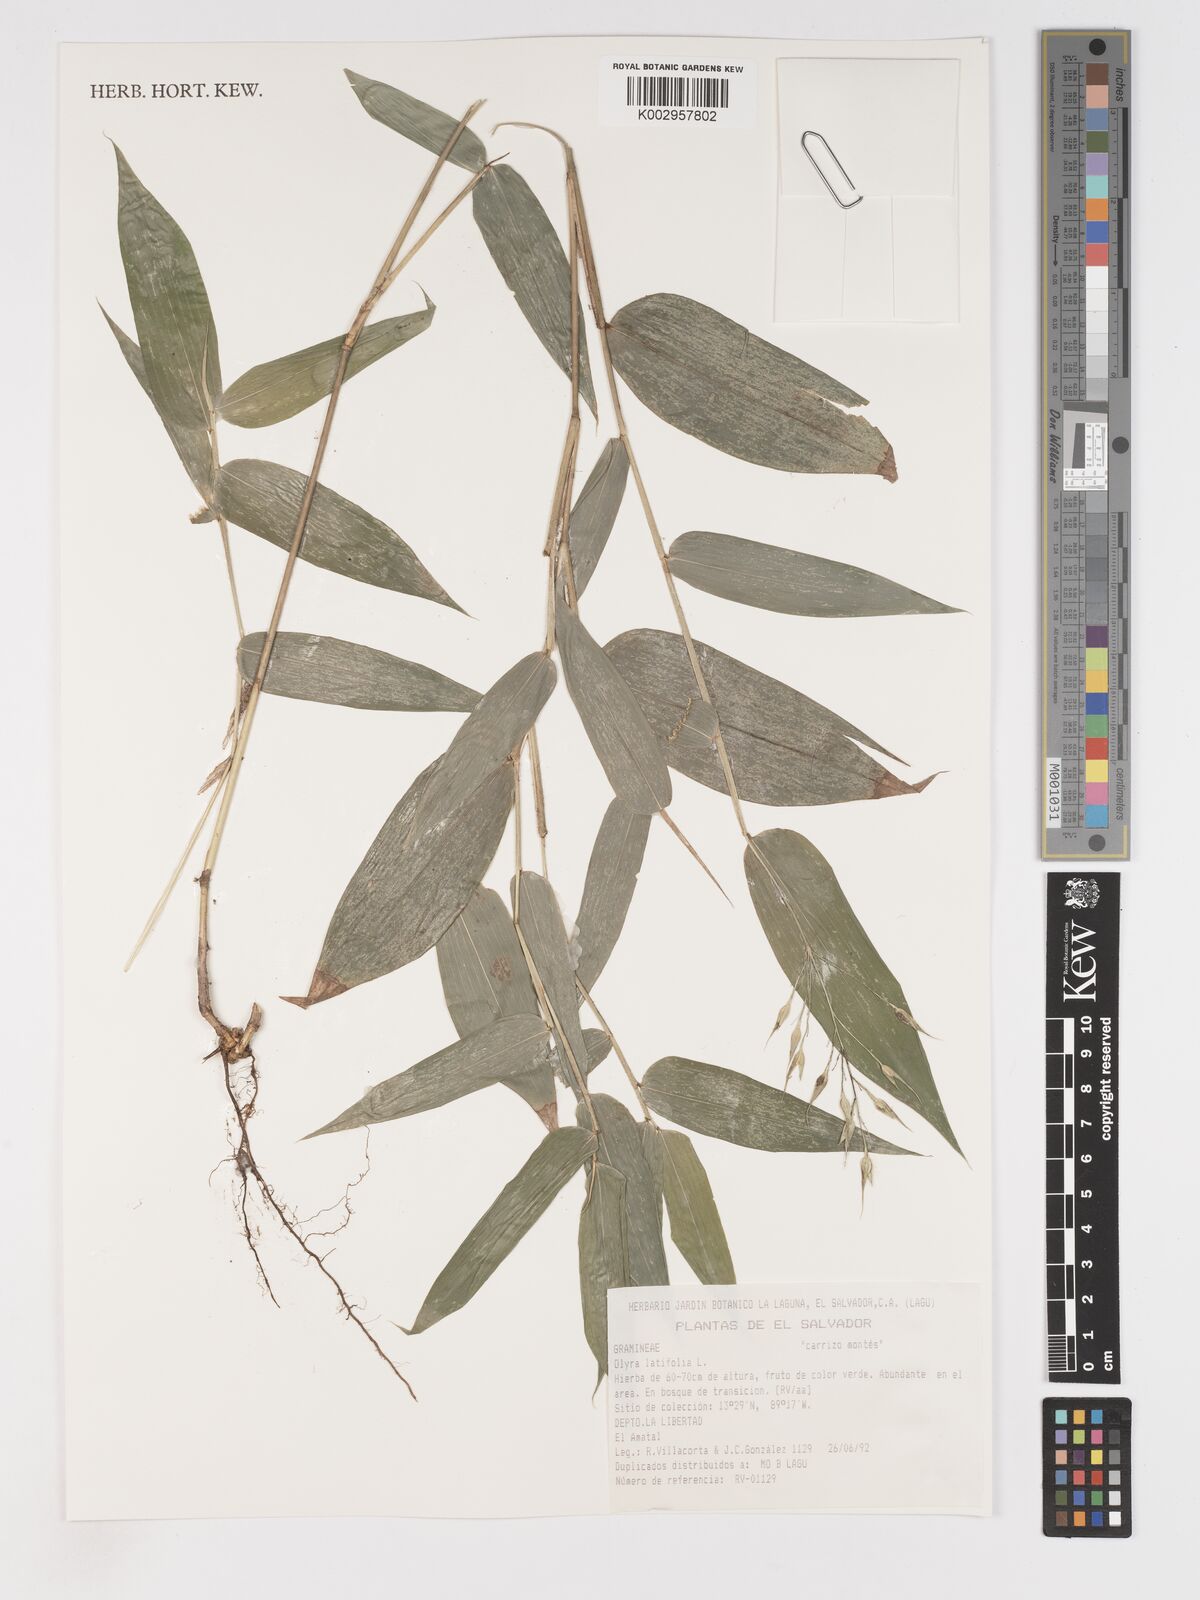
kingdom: Plantae
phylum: Tracheophyta
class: Liliopsida
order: Poales
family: Poaceae
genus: Olyra
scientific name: Olyra latifolia
